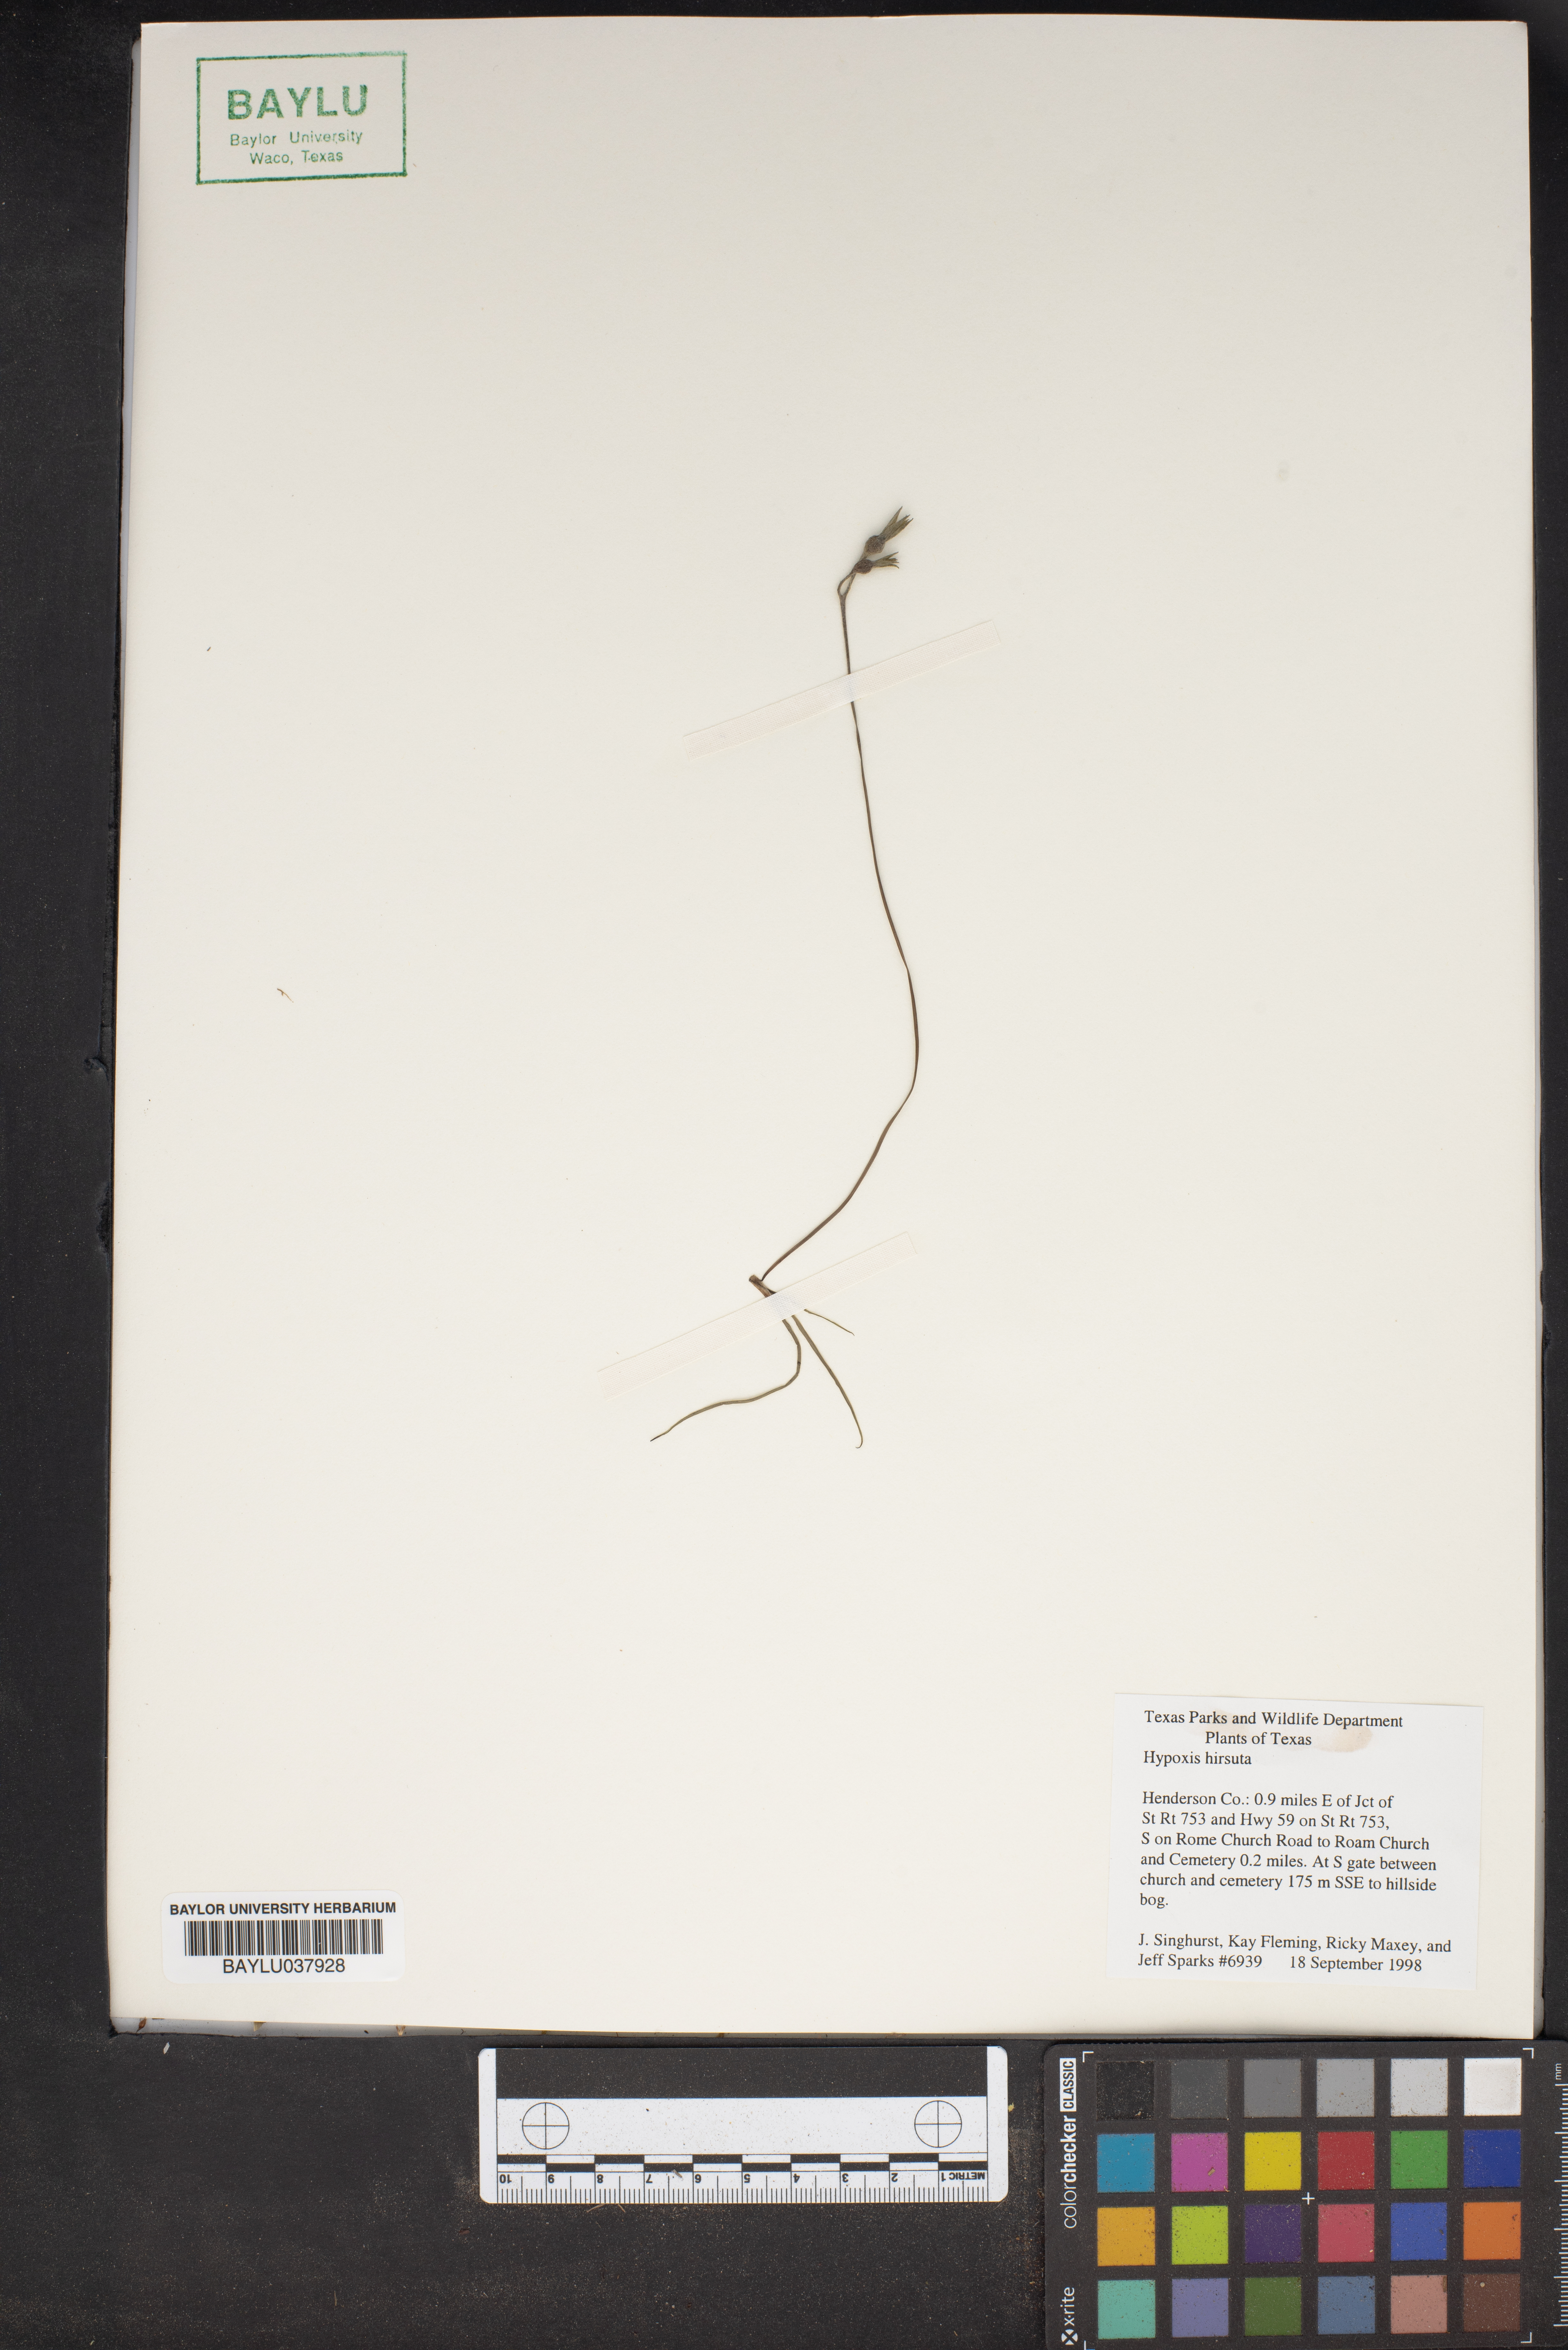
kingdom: Plantae
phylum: Tracheophyta
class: Liliopsida
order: Asparagales
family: Hypoxidaceae
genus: Hypoxis
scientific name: Hypoxis hirsuta
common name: Common goldstar
